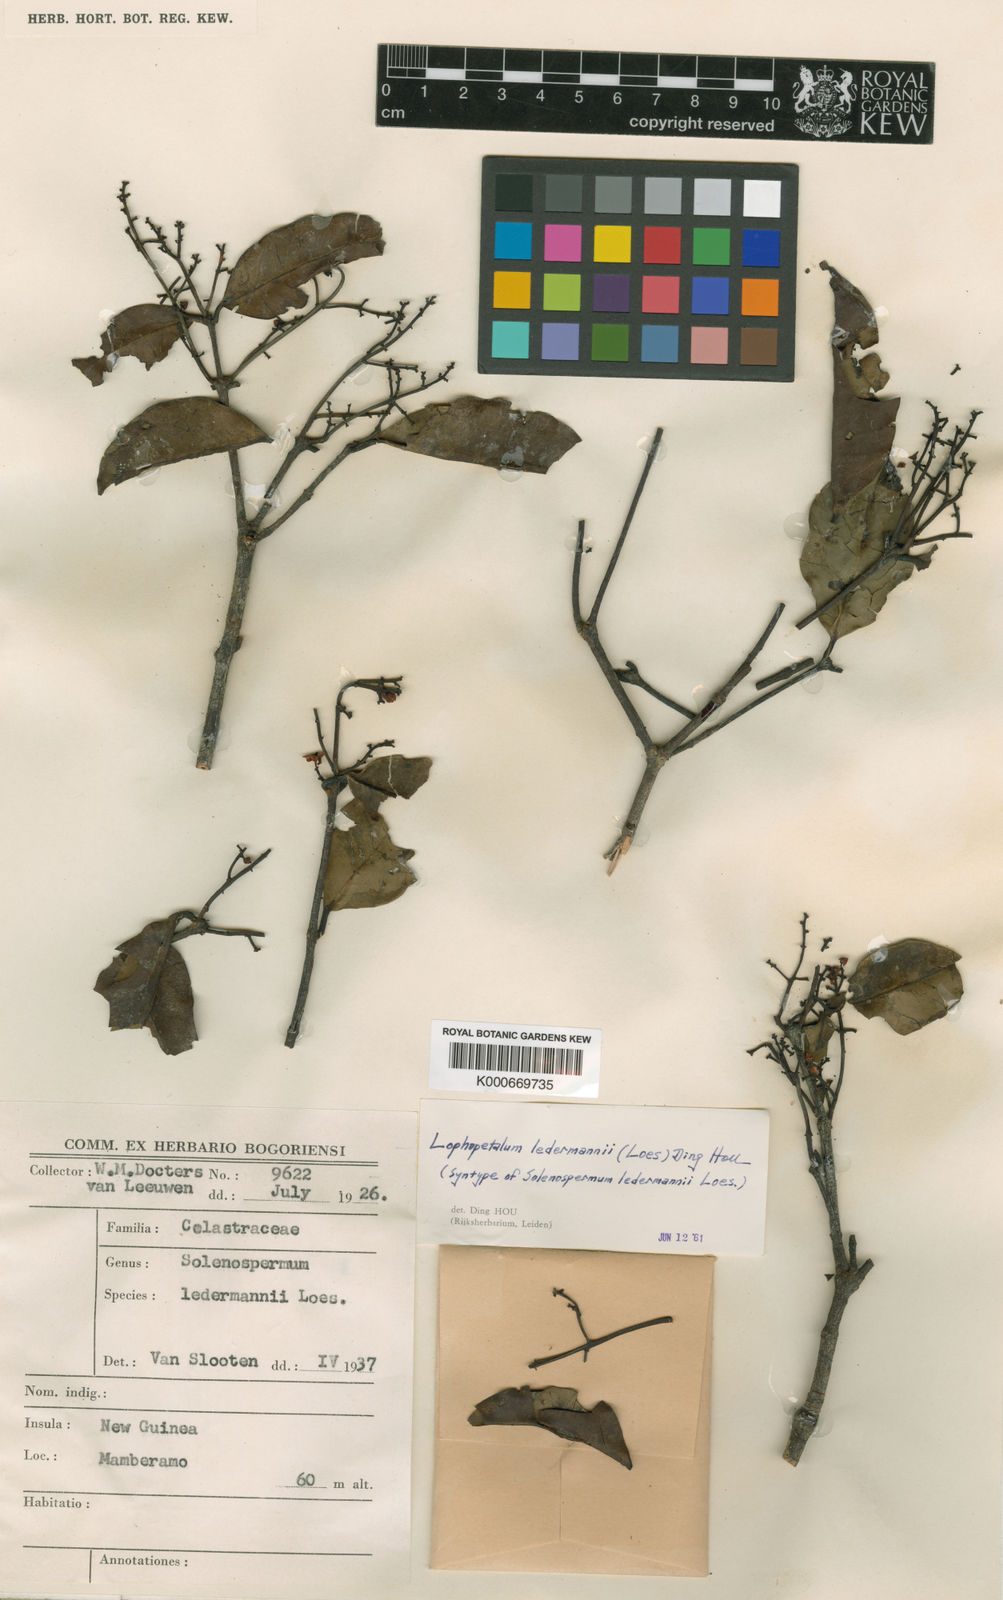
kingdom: Plantae
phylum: Tracheophyta
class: Magnoliopsida
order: Celastrales
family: Celastraceae
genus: Lophopetalum
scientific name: Lophopetalum ledermannii
